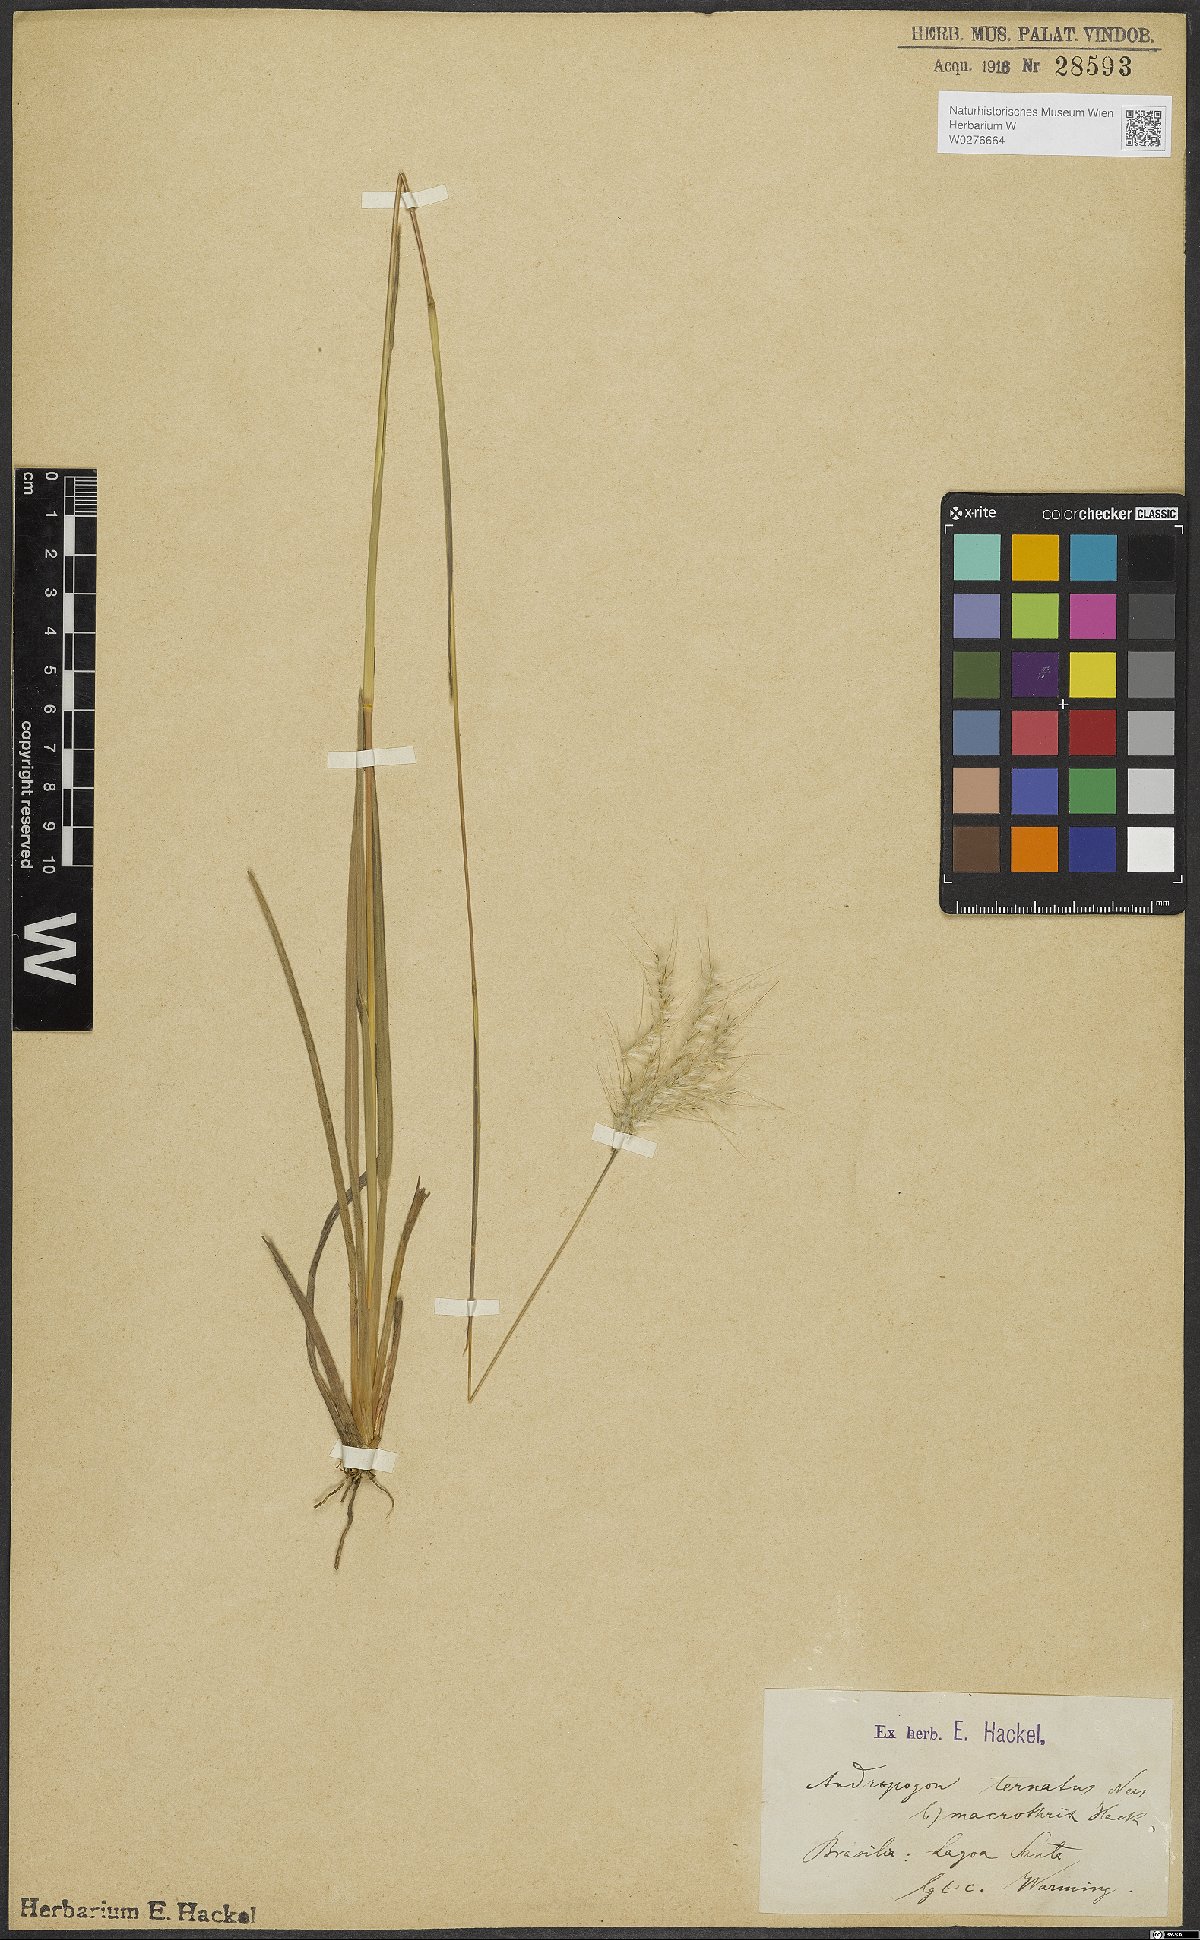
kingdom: Plantae
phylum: Tracheophyta
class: Liliopsida
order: Poales
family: Poaceae
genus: Andropogon
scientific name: Andropogon macrothrix
